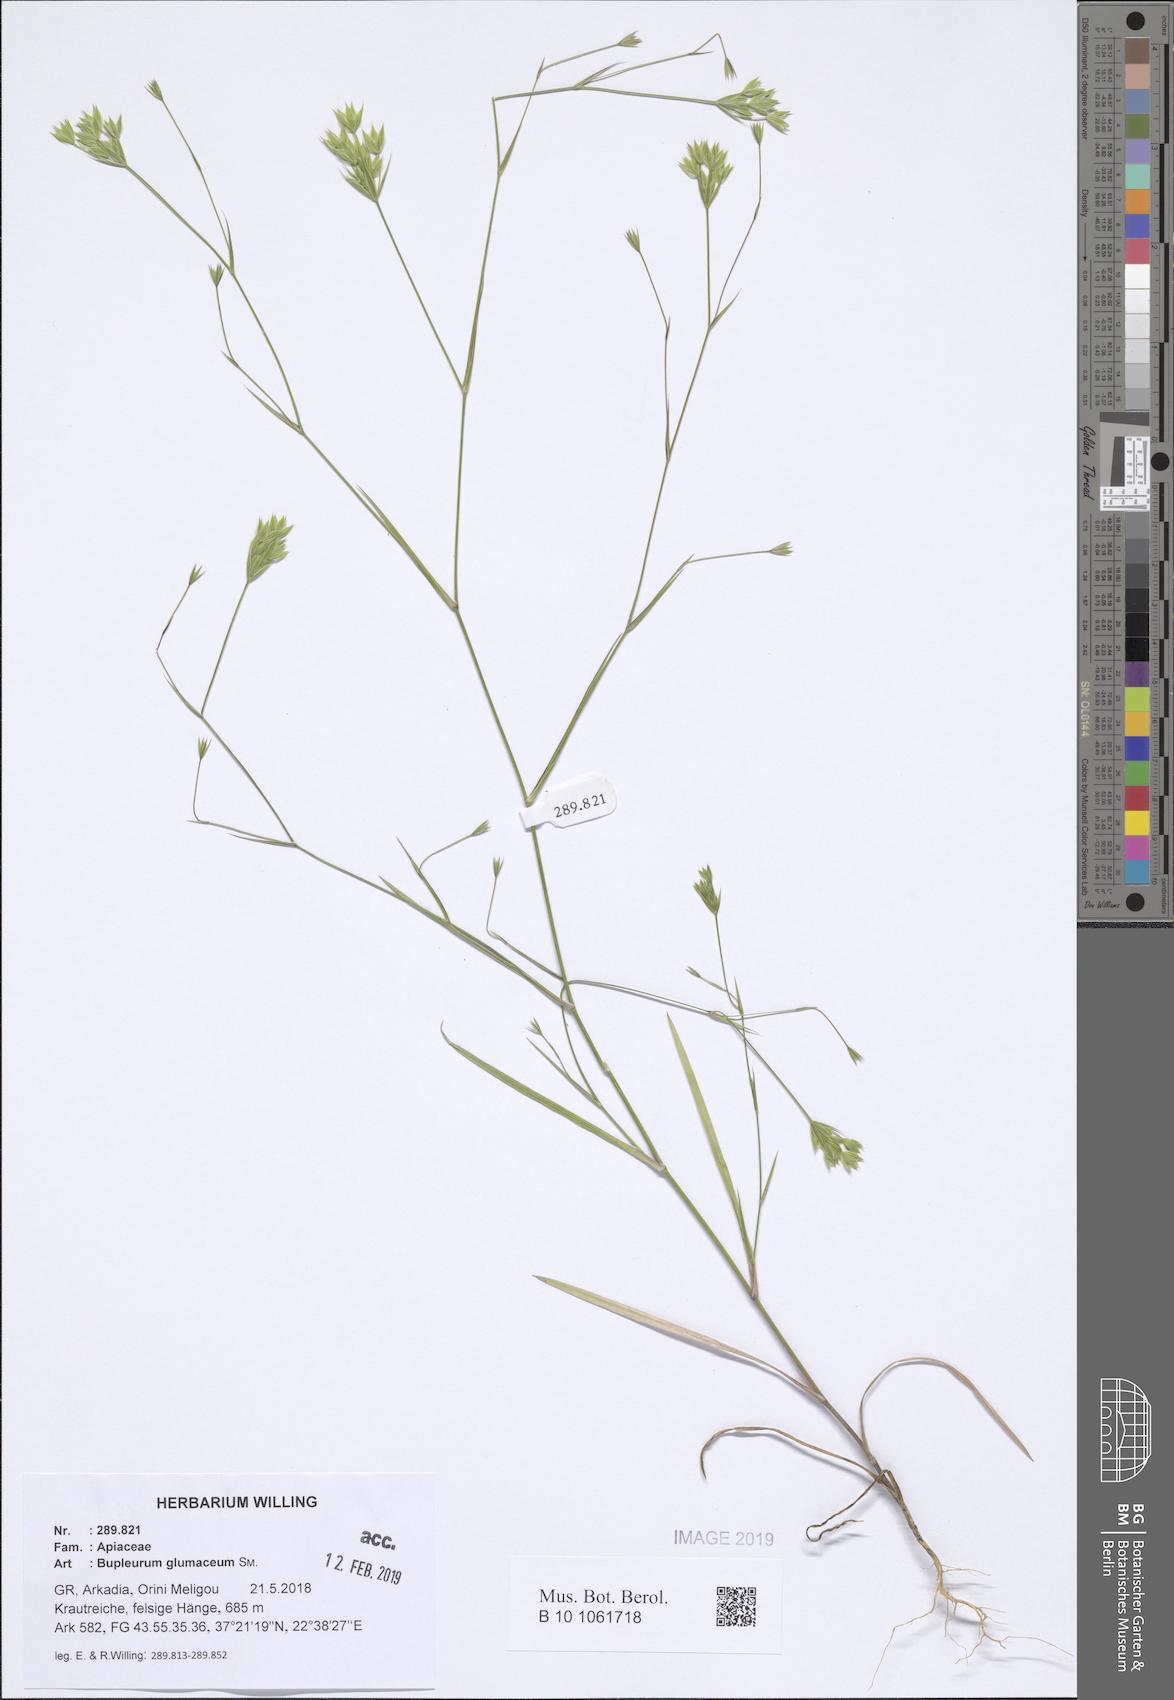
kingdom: Plantae
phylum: Tracheophyta
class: Magnoliopsida
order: Apiales
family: Apiaceae
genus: Bupleurum
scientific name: Bupleurum glumaceum
